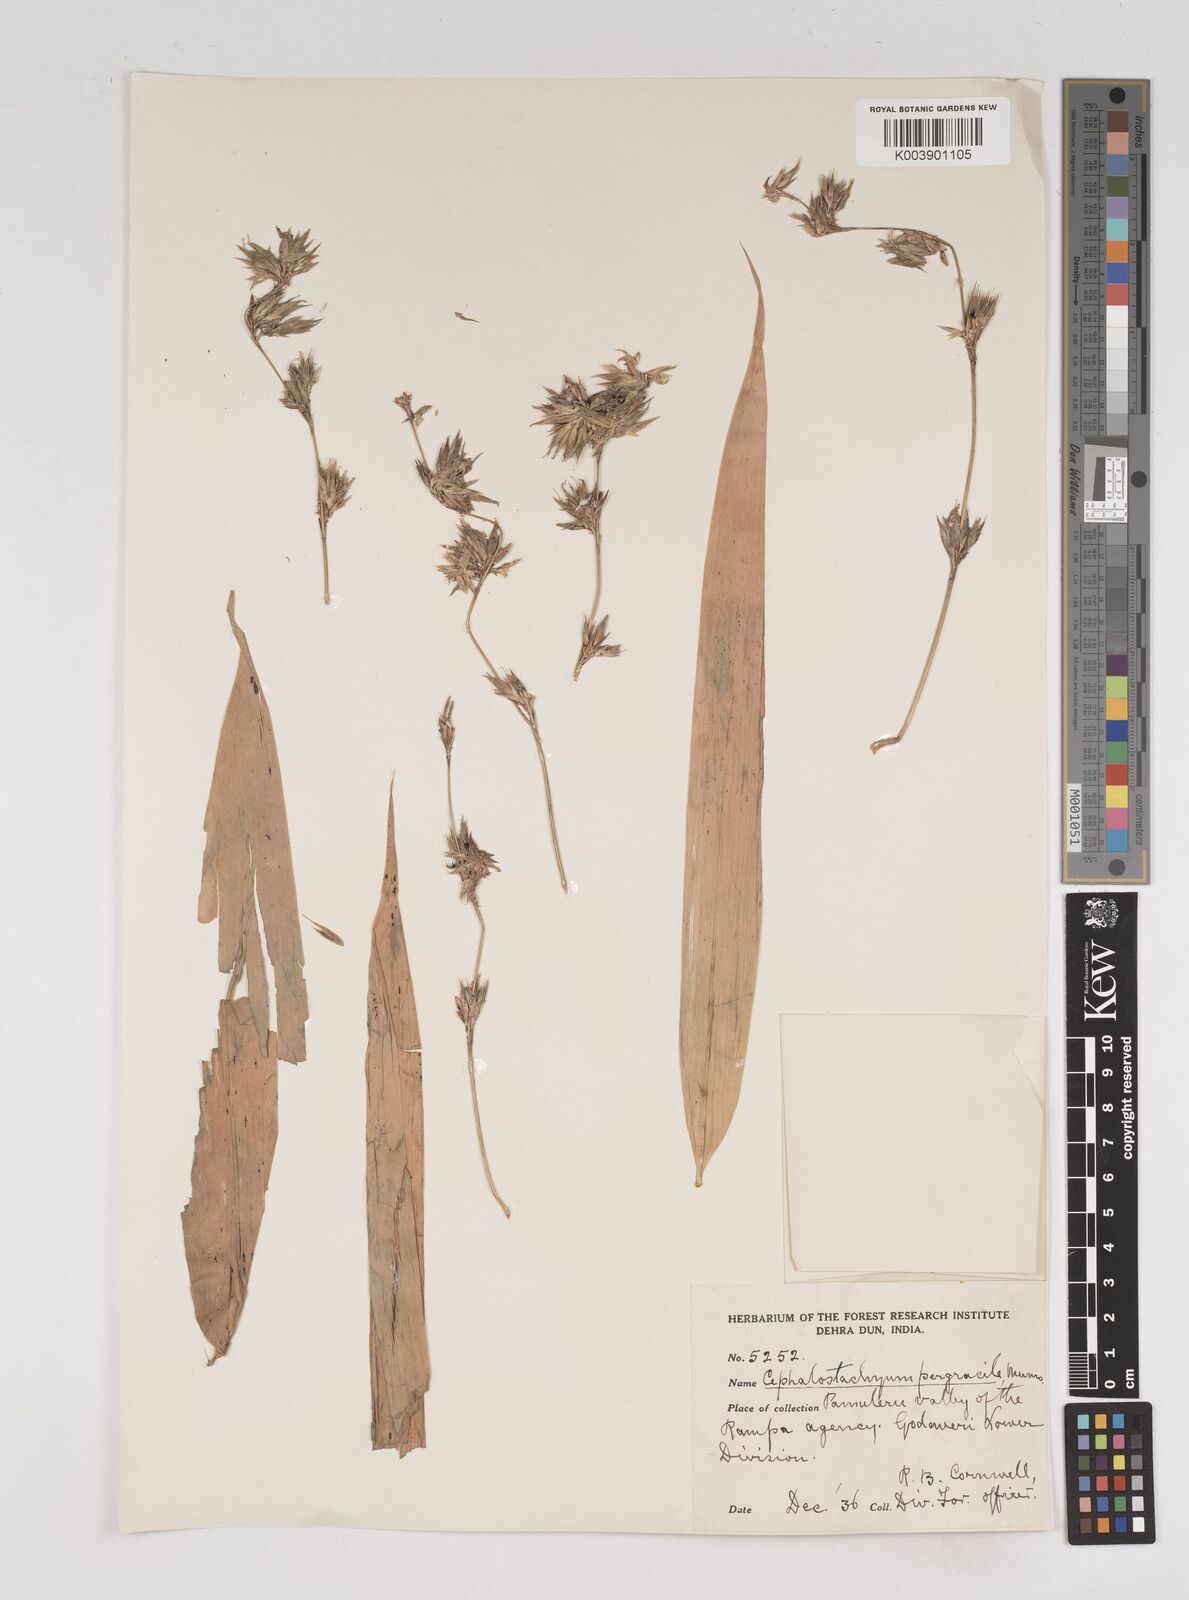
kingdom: Plantae
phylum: Tracheophyta
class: Liliopsida
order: Poales
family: Poaceae
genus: Schizostachyum
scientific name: Schizostachyum pergracile
